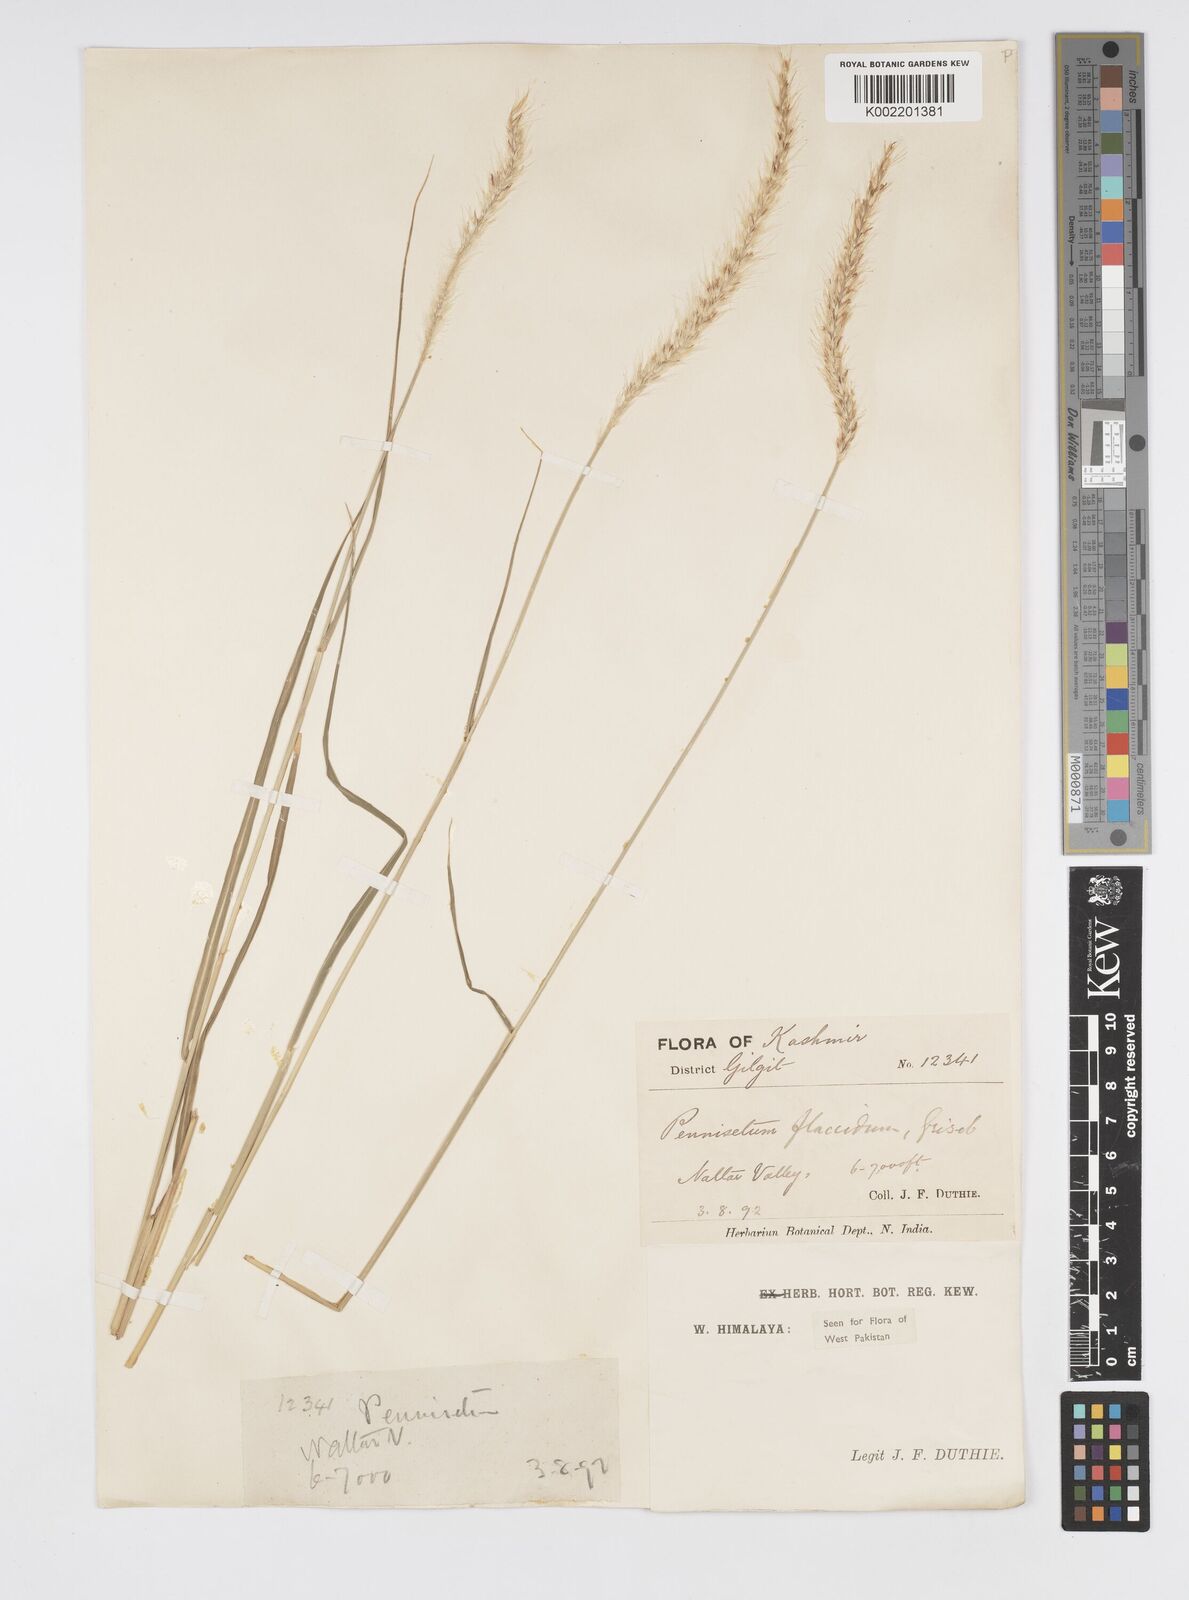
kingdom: Plantae
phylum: Tracheophyta
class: Liliopsida
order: Poales
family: Poaceae
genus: Cenchrus
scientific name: Cenchrus flaccidus
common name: Flaccid grass
